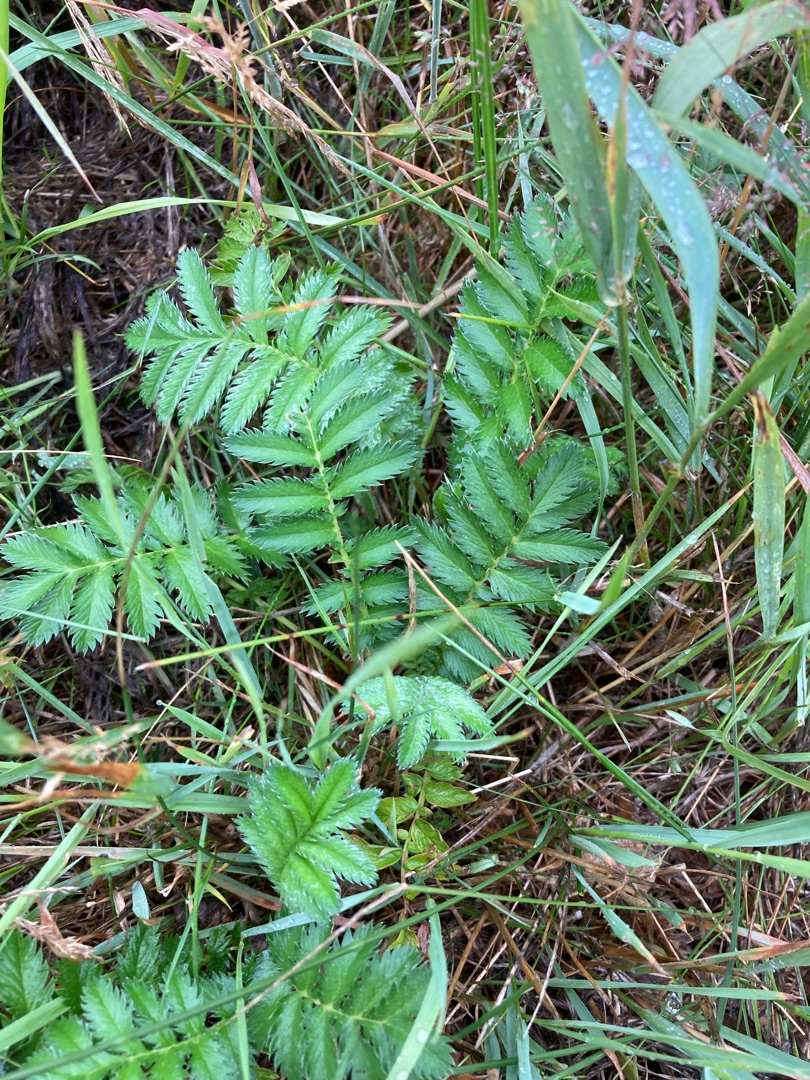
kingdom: Plantae
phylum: Tracheophyta
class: Magnoliopsida
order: Rosales
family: Rosaceae
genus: Argentina
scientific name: Argentina anserina
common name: Gåsepotentil
